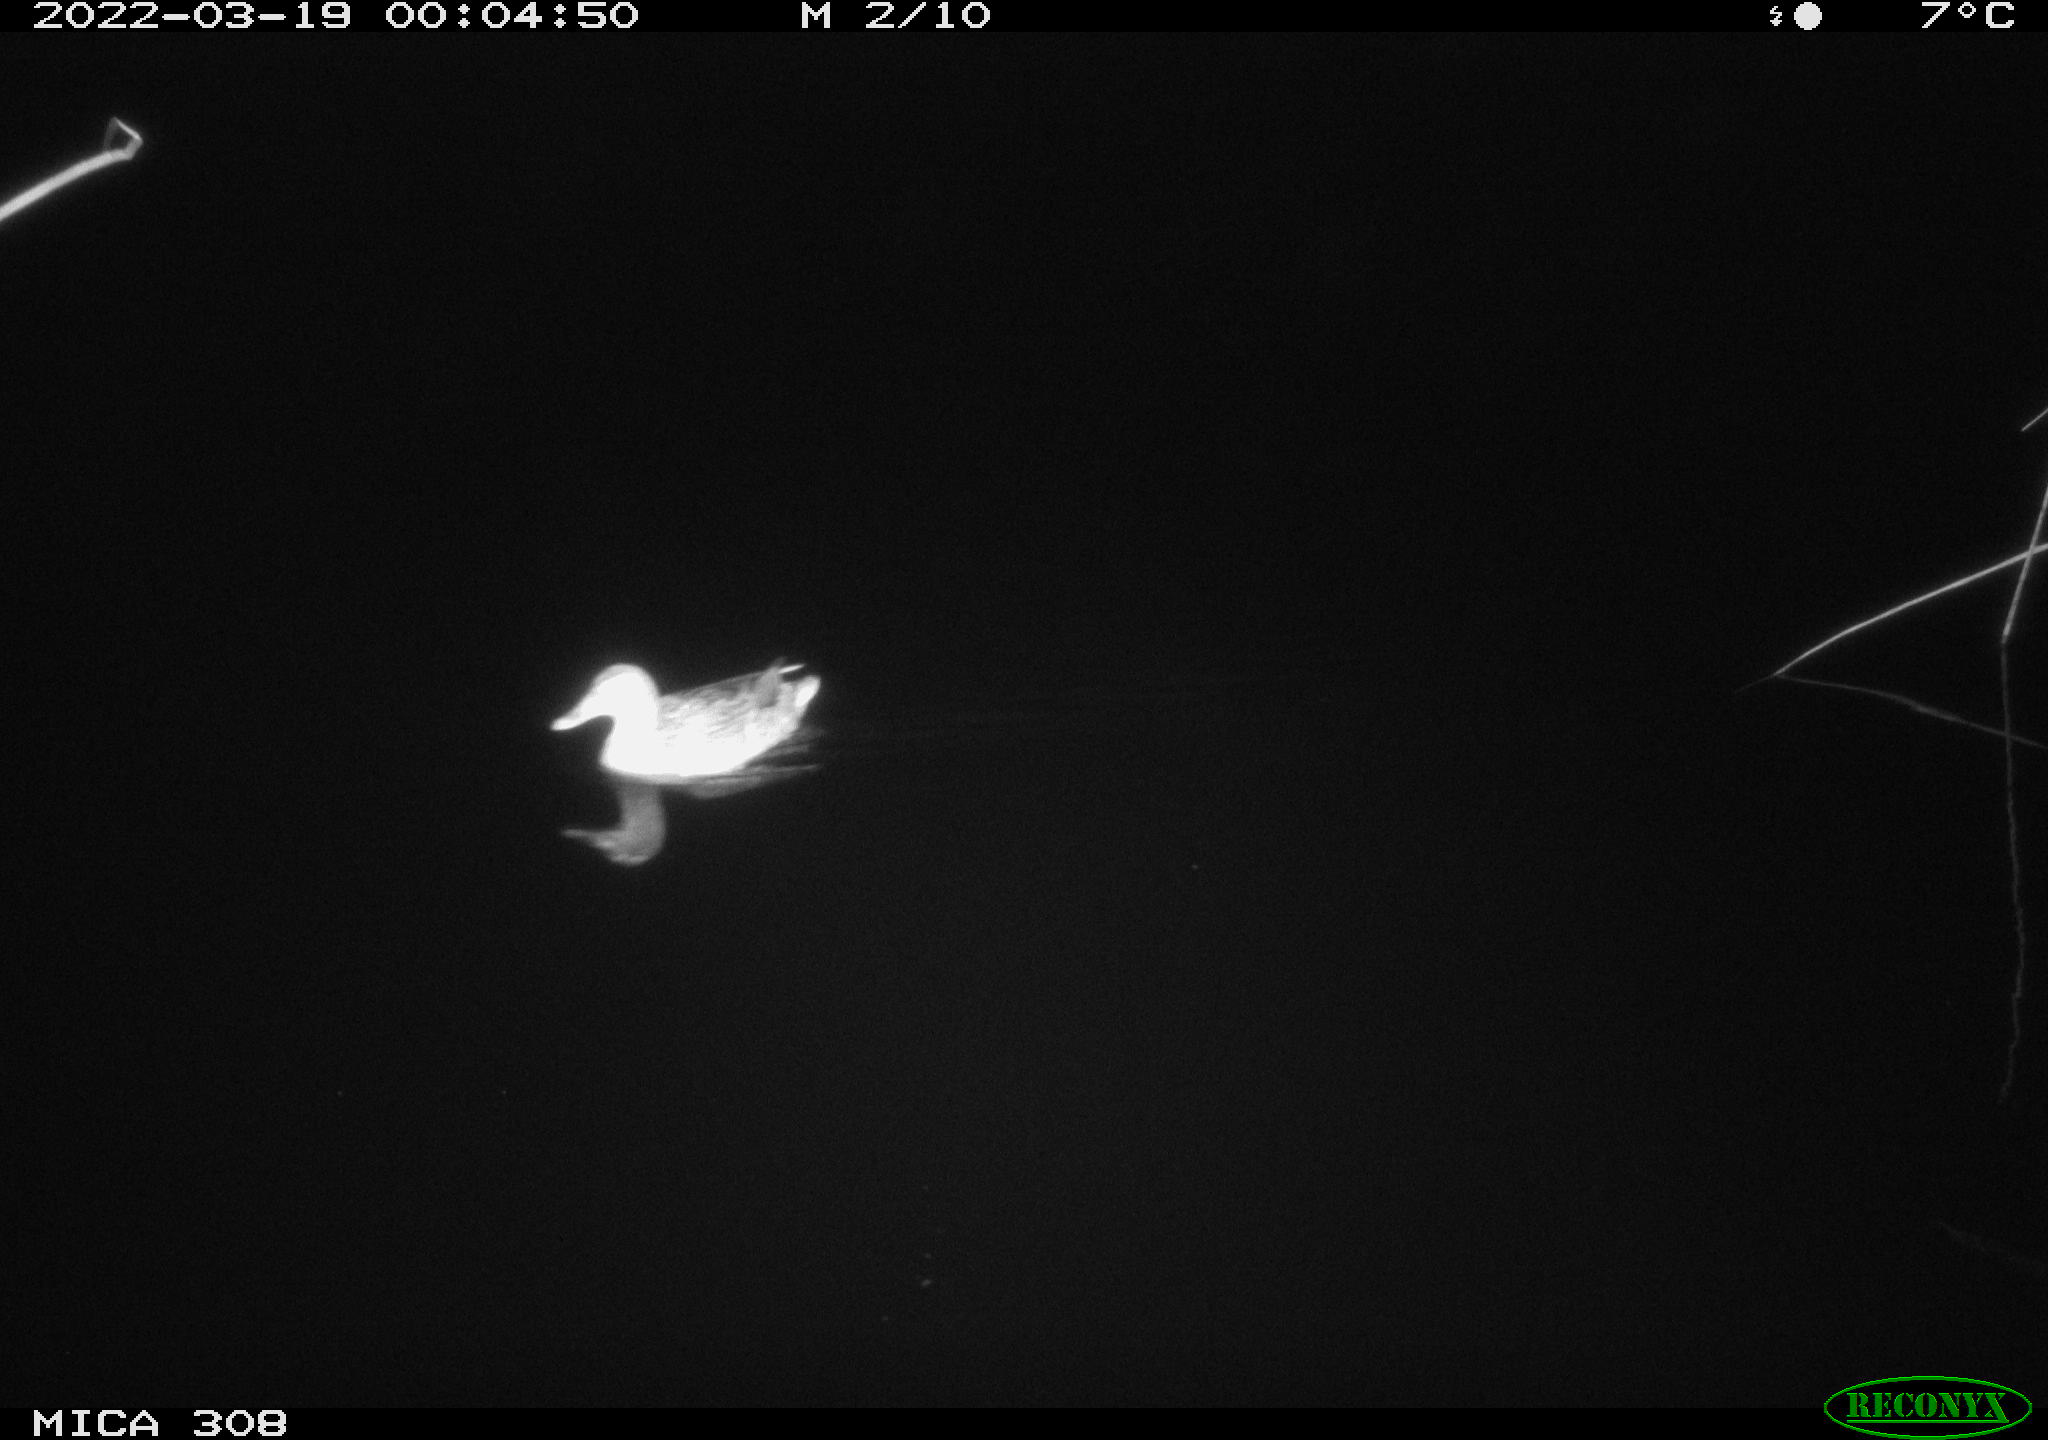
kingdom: Animalia
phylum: Chordata
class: Aves
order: Anseriformes
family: Anatidae
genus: Anas
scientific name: Anas platyrhynchos
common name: Mallard
